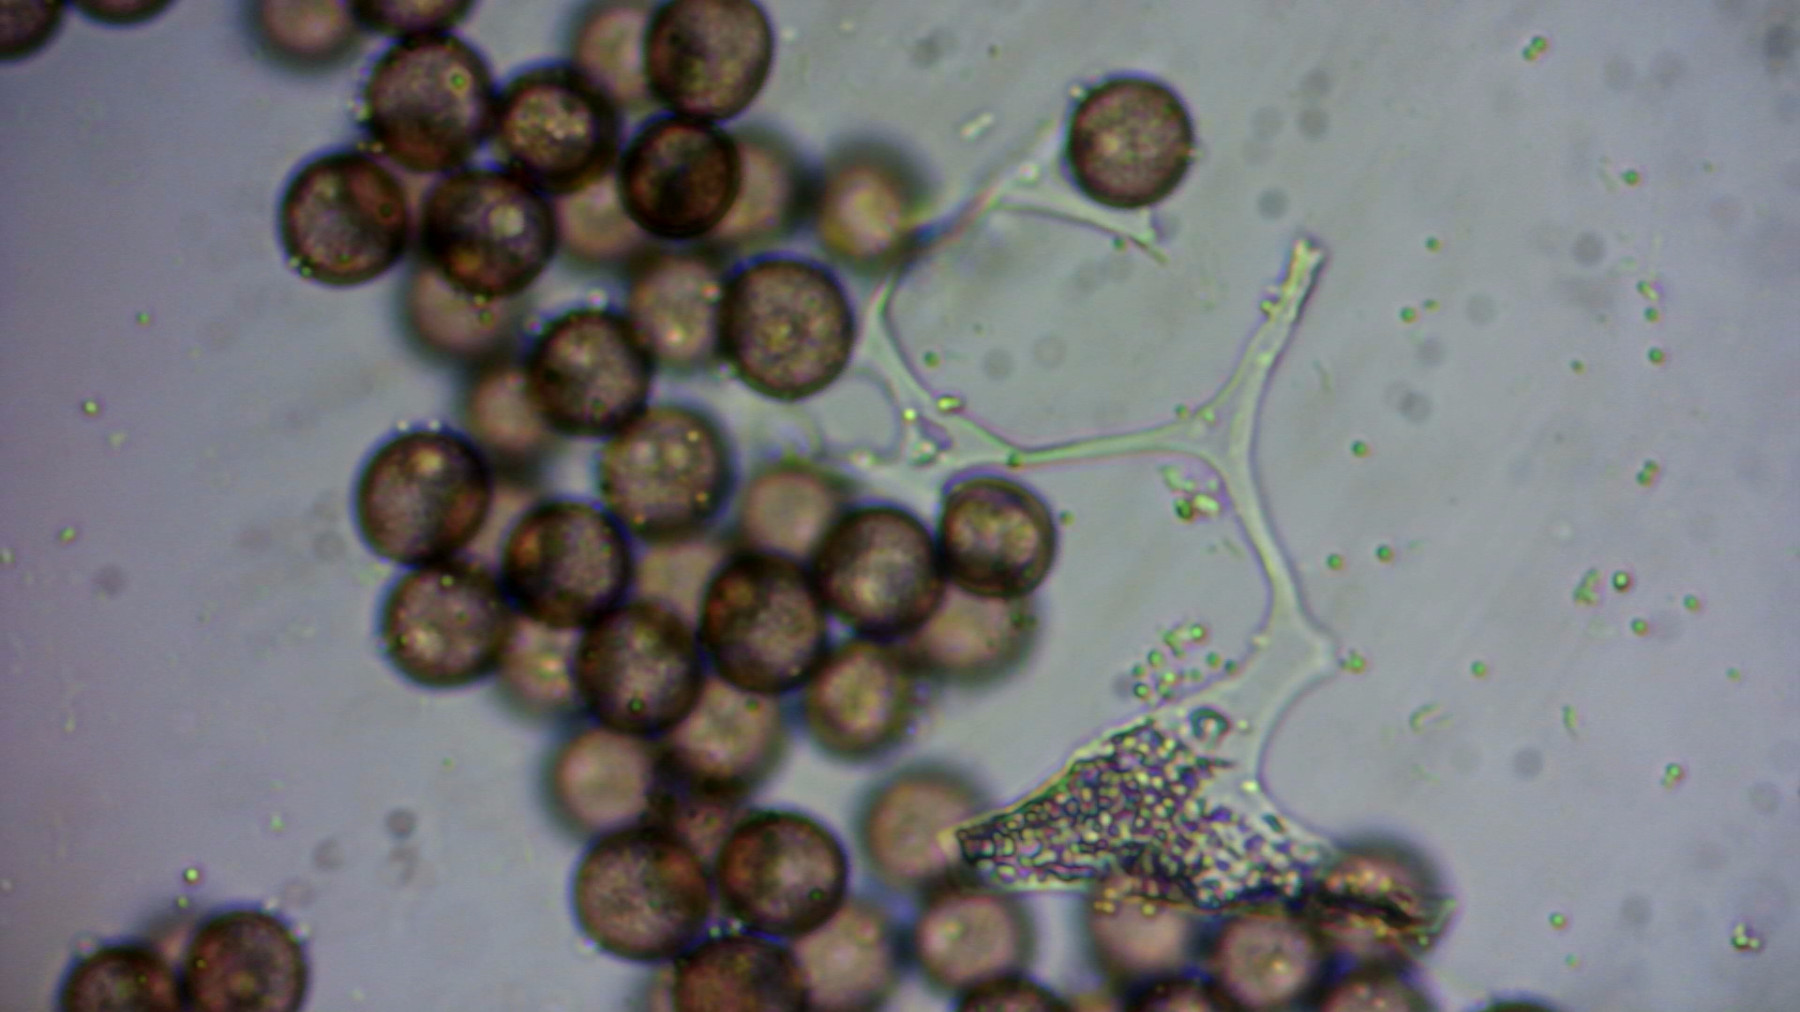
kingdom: Protozoa
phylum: Mycetozoa
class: Myxomycetes
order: Physarales
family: Physaraceae
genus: Physarum
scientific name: Physarum leucophaeum
